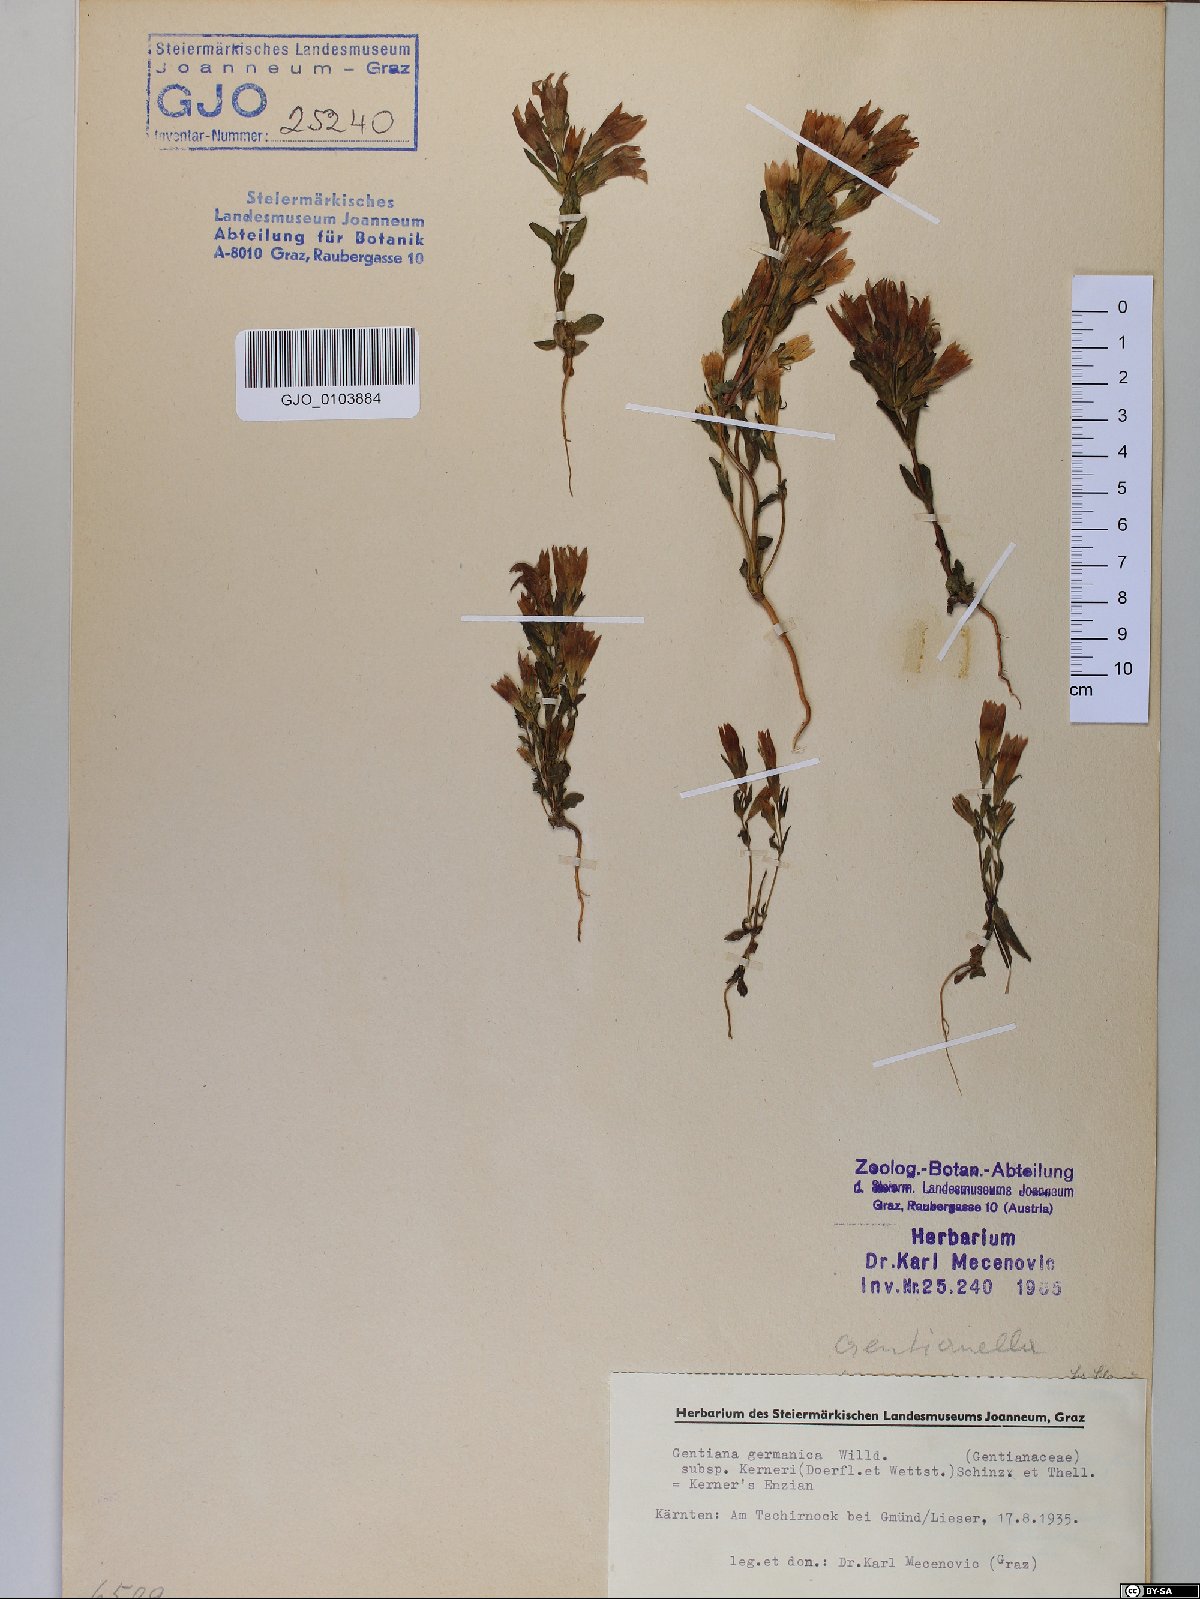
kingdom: Plantae
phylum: Tracheophyta
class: Magnoliopsida
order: Gentianales
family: Gentianaceae
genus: Gentianella
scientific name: Gentianella rhaetica
